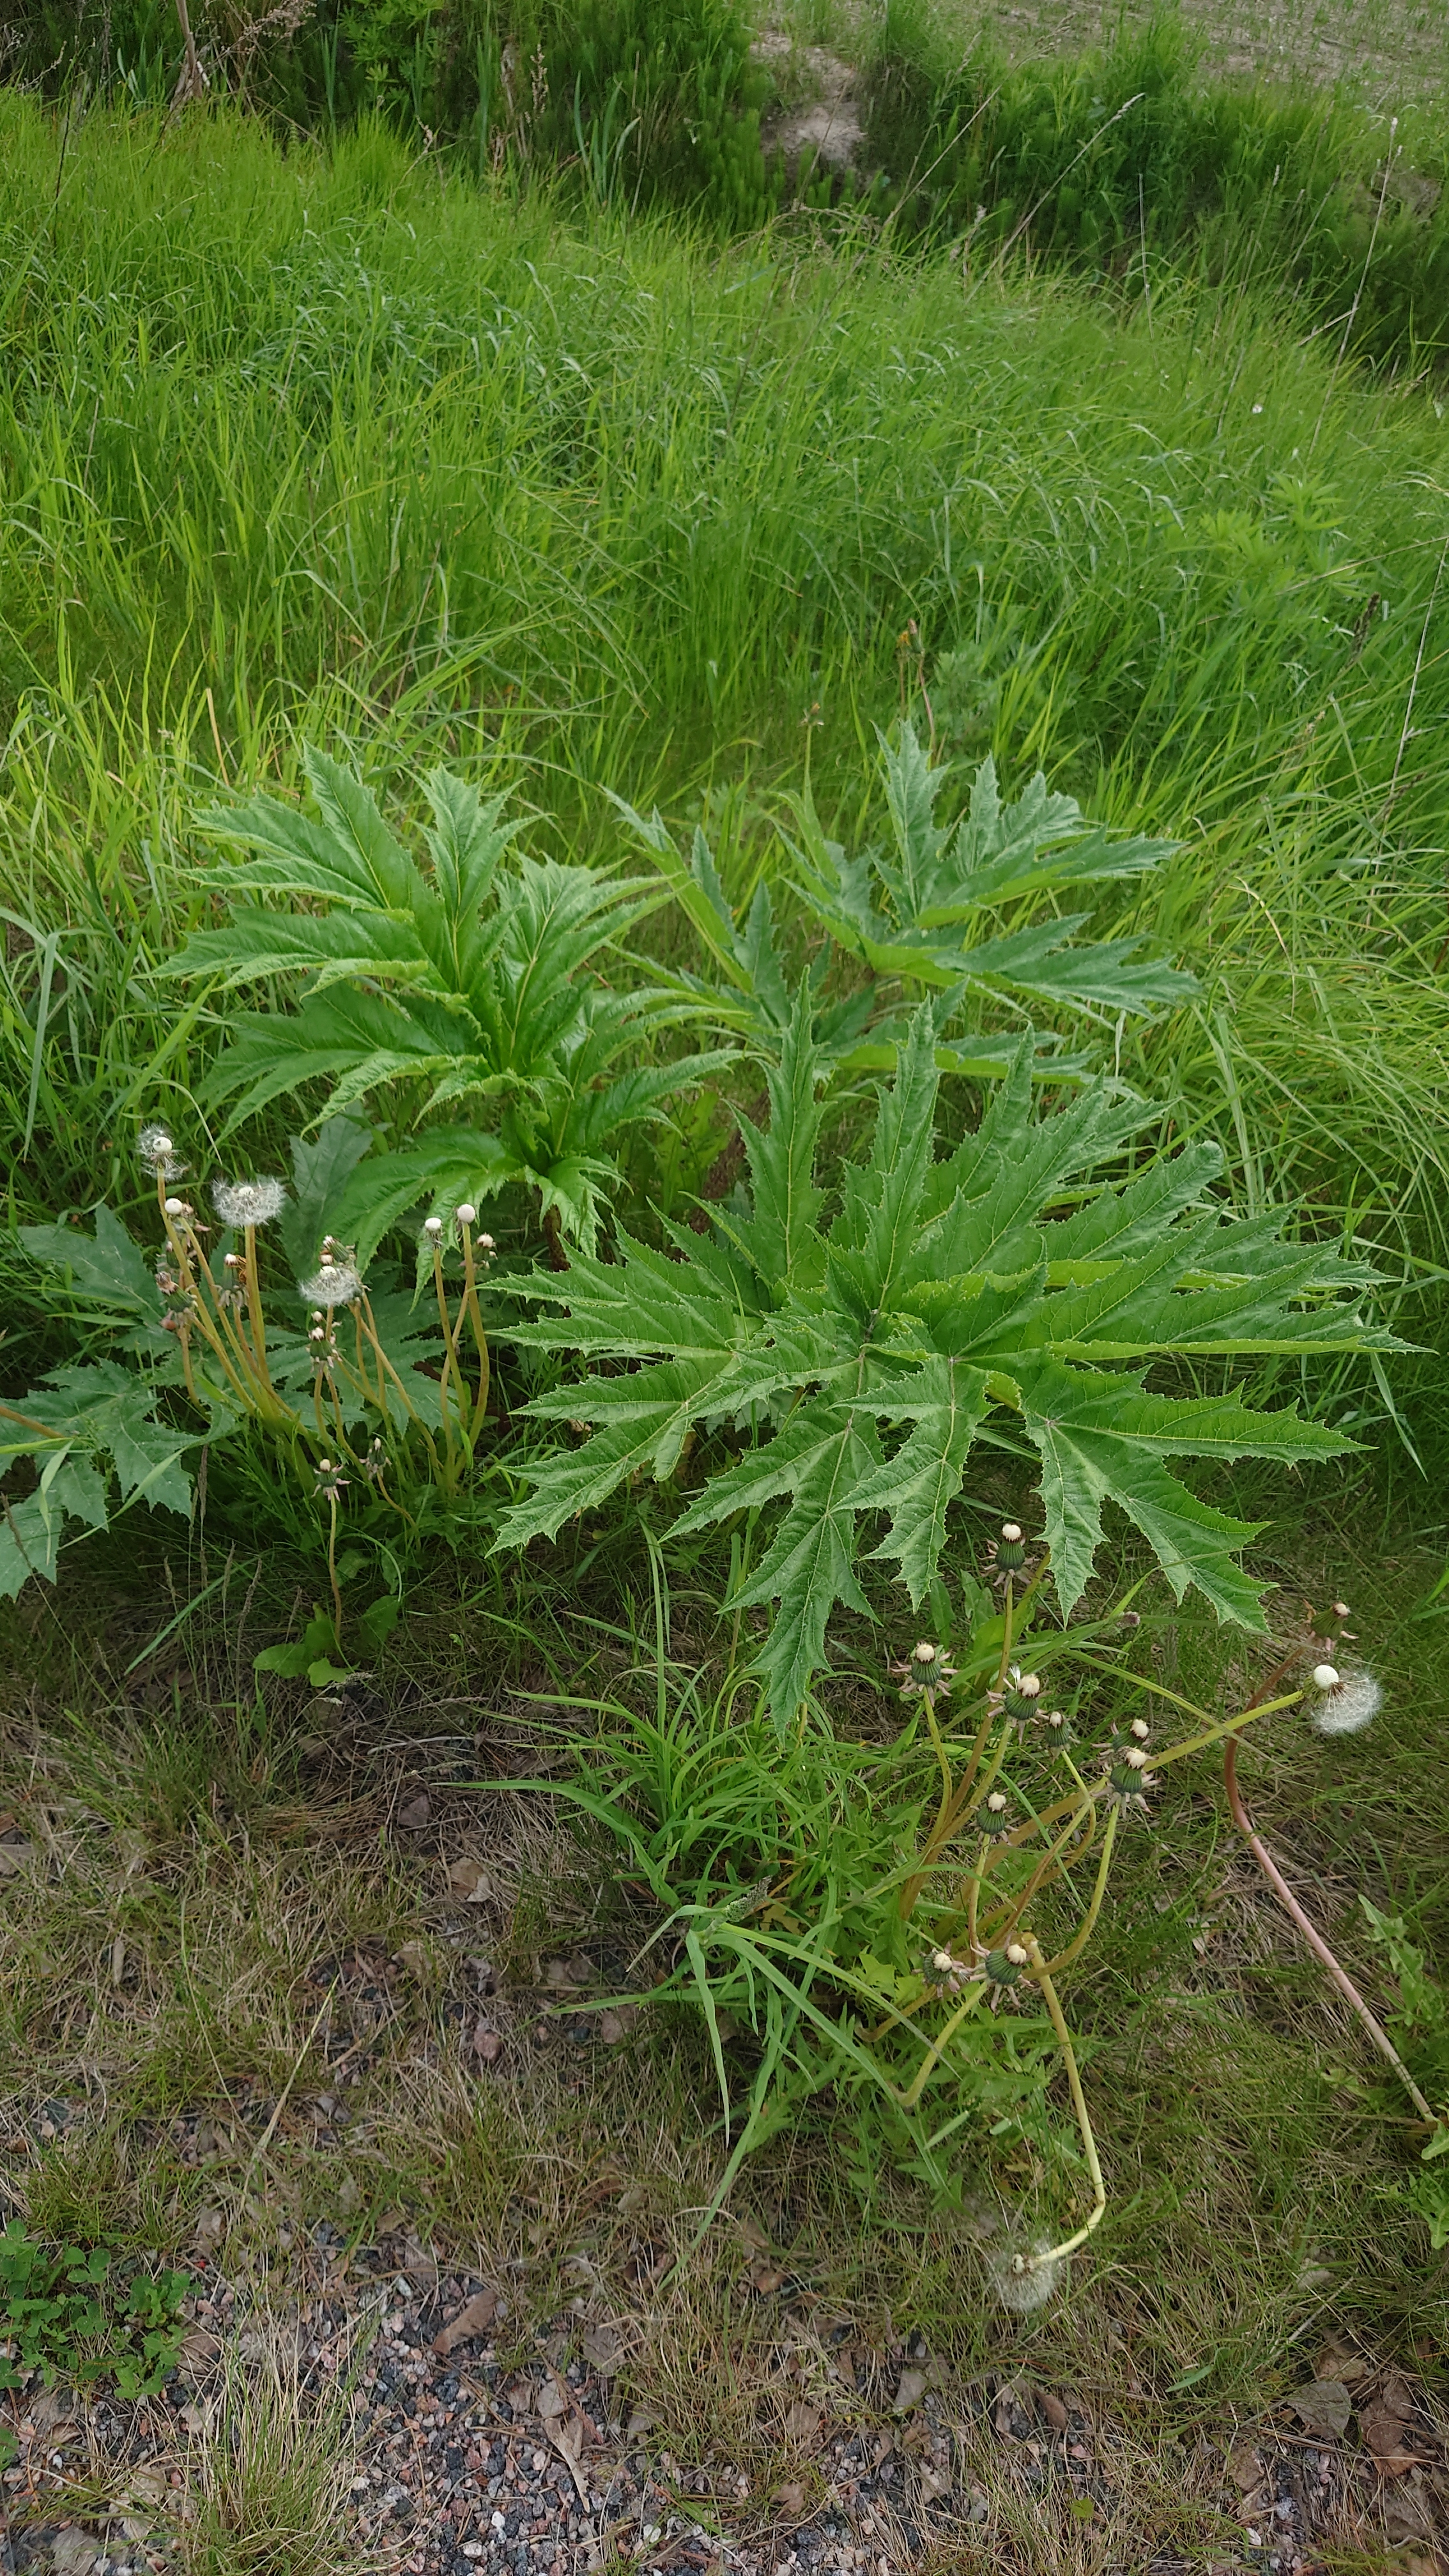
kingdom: Plantae
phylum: Tracheophyta
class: Magnoliopsida
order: Apiales
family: Apiaceae
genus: Heracleum
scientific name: Heracleum
